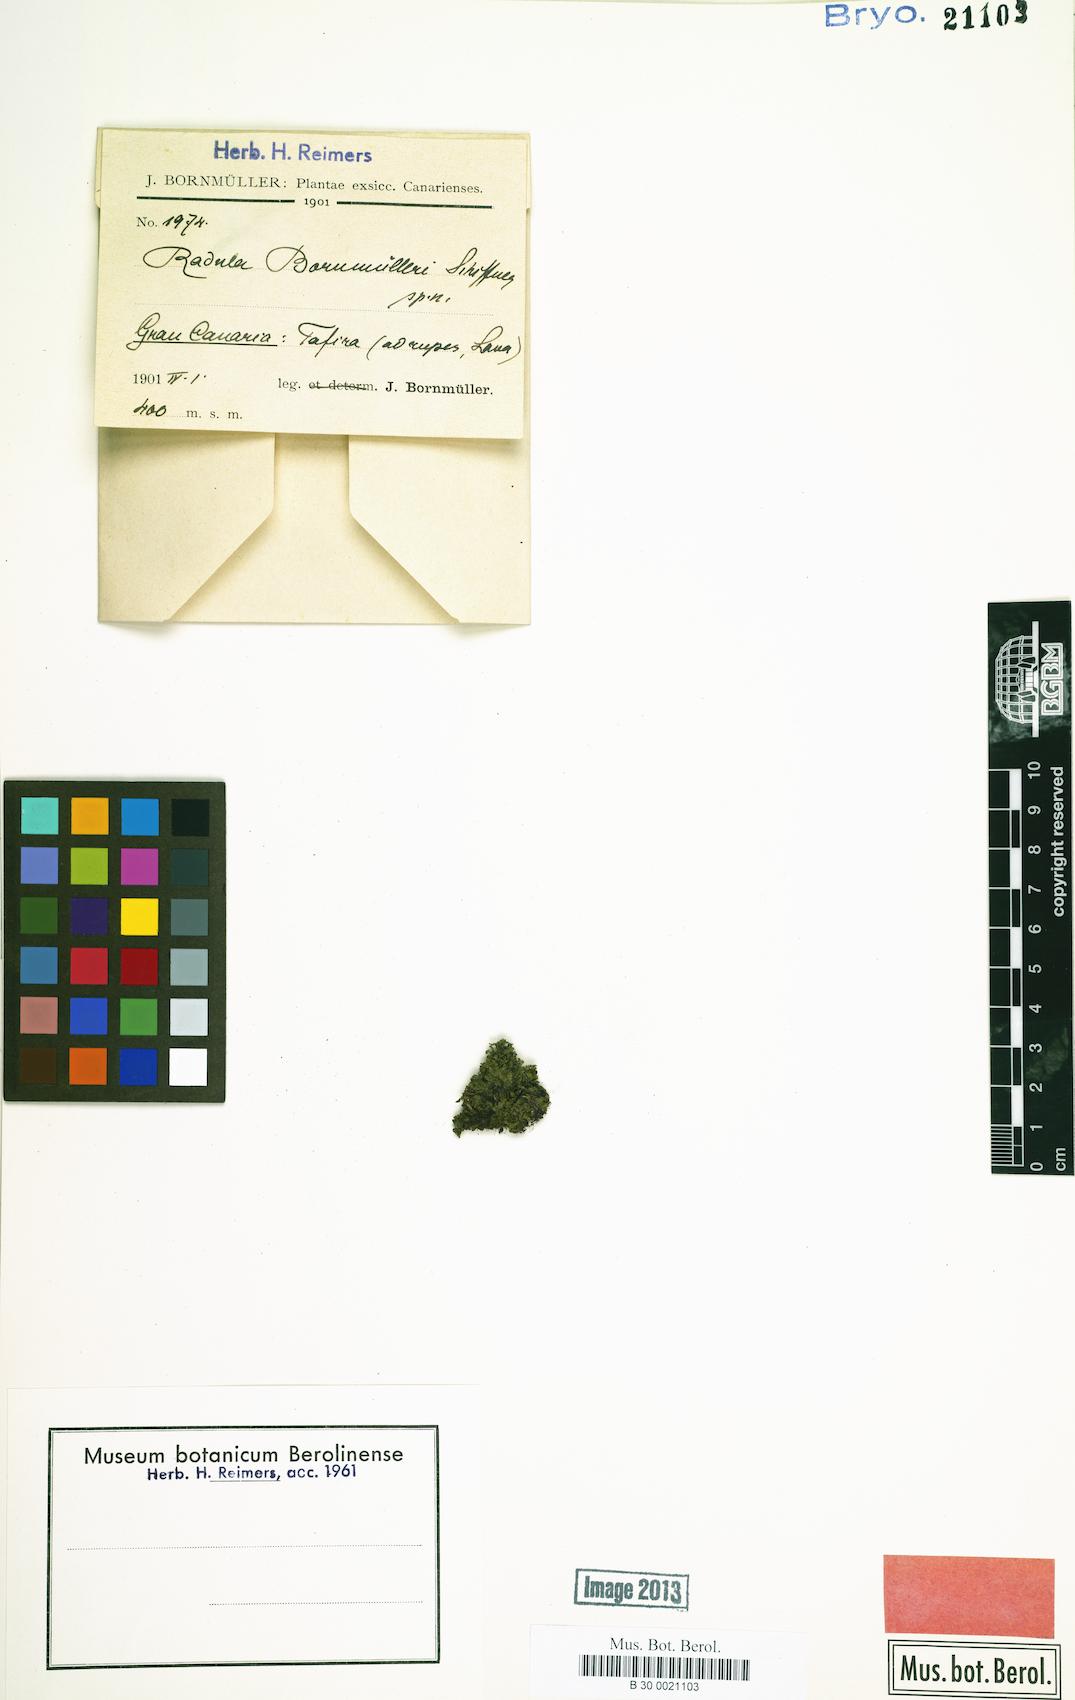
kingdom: Plantae
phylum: Marchantiophyta
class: Jungermanniopsida
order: Porellales
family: Radulaceae
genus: Radula
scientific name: Radula lindenbergiana
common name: Lindenberg's scalewort
